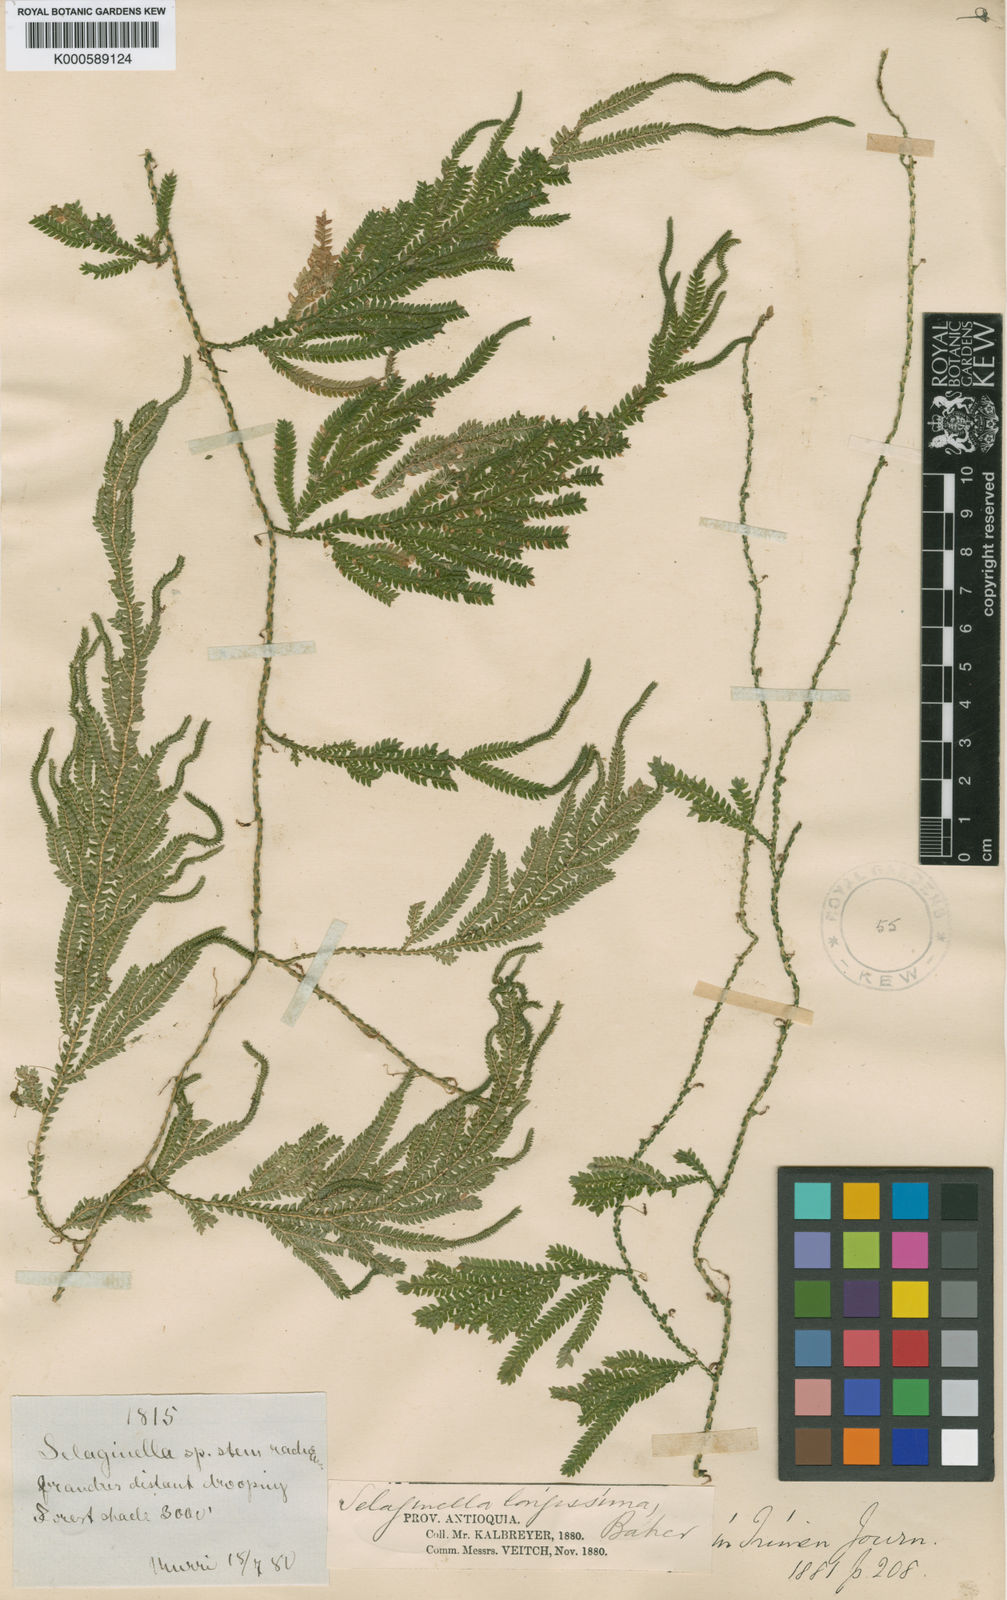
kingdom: Plantae
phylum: Tracheophyta
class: Lycopodiopsida
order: Selaginellales
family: Selaginellaceae
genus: Selaginella
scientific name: Selaginella longissima
